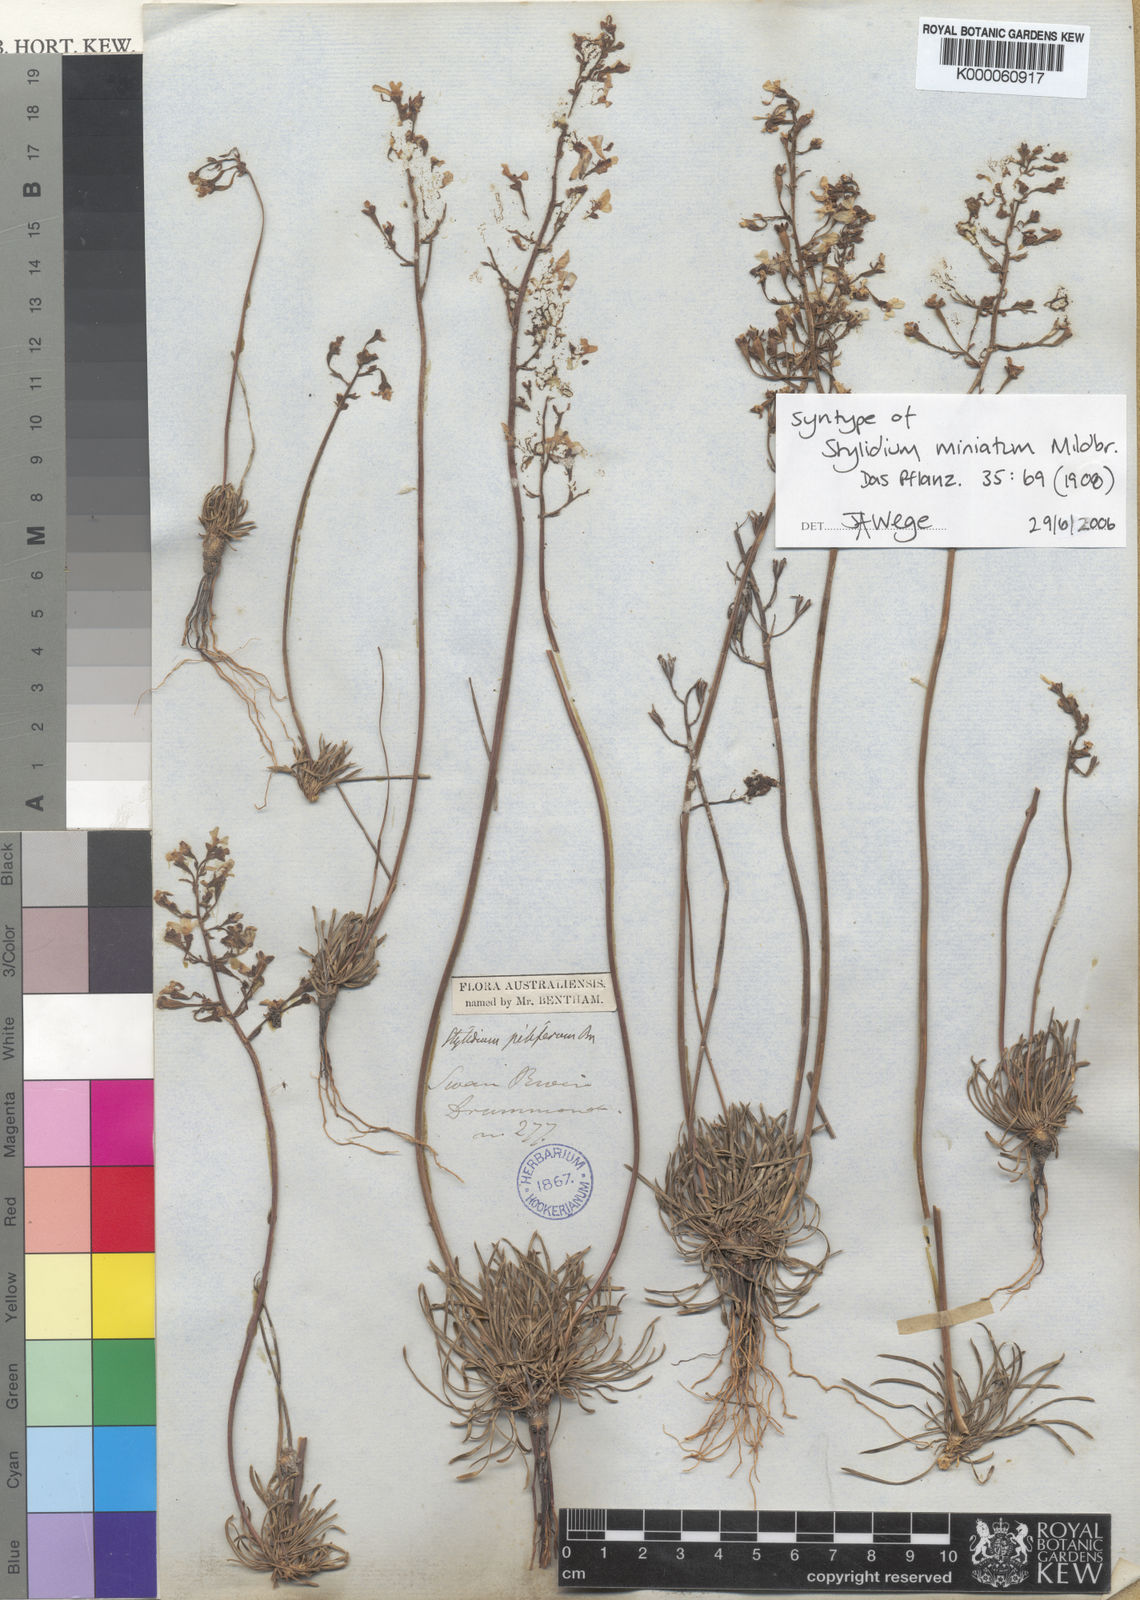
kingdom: Plantae
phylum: Tracheophyta
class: Magnoliopsida
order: Asterales
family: Stylidiaceae
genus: Stylidium
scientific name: Stylidium miniatum
